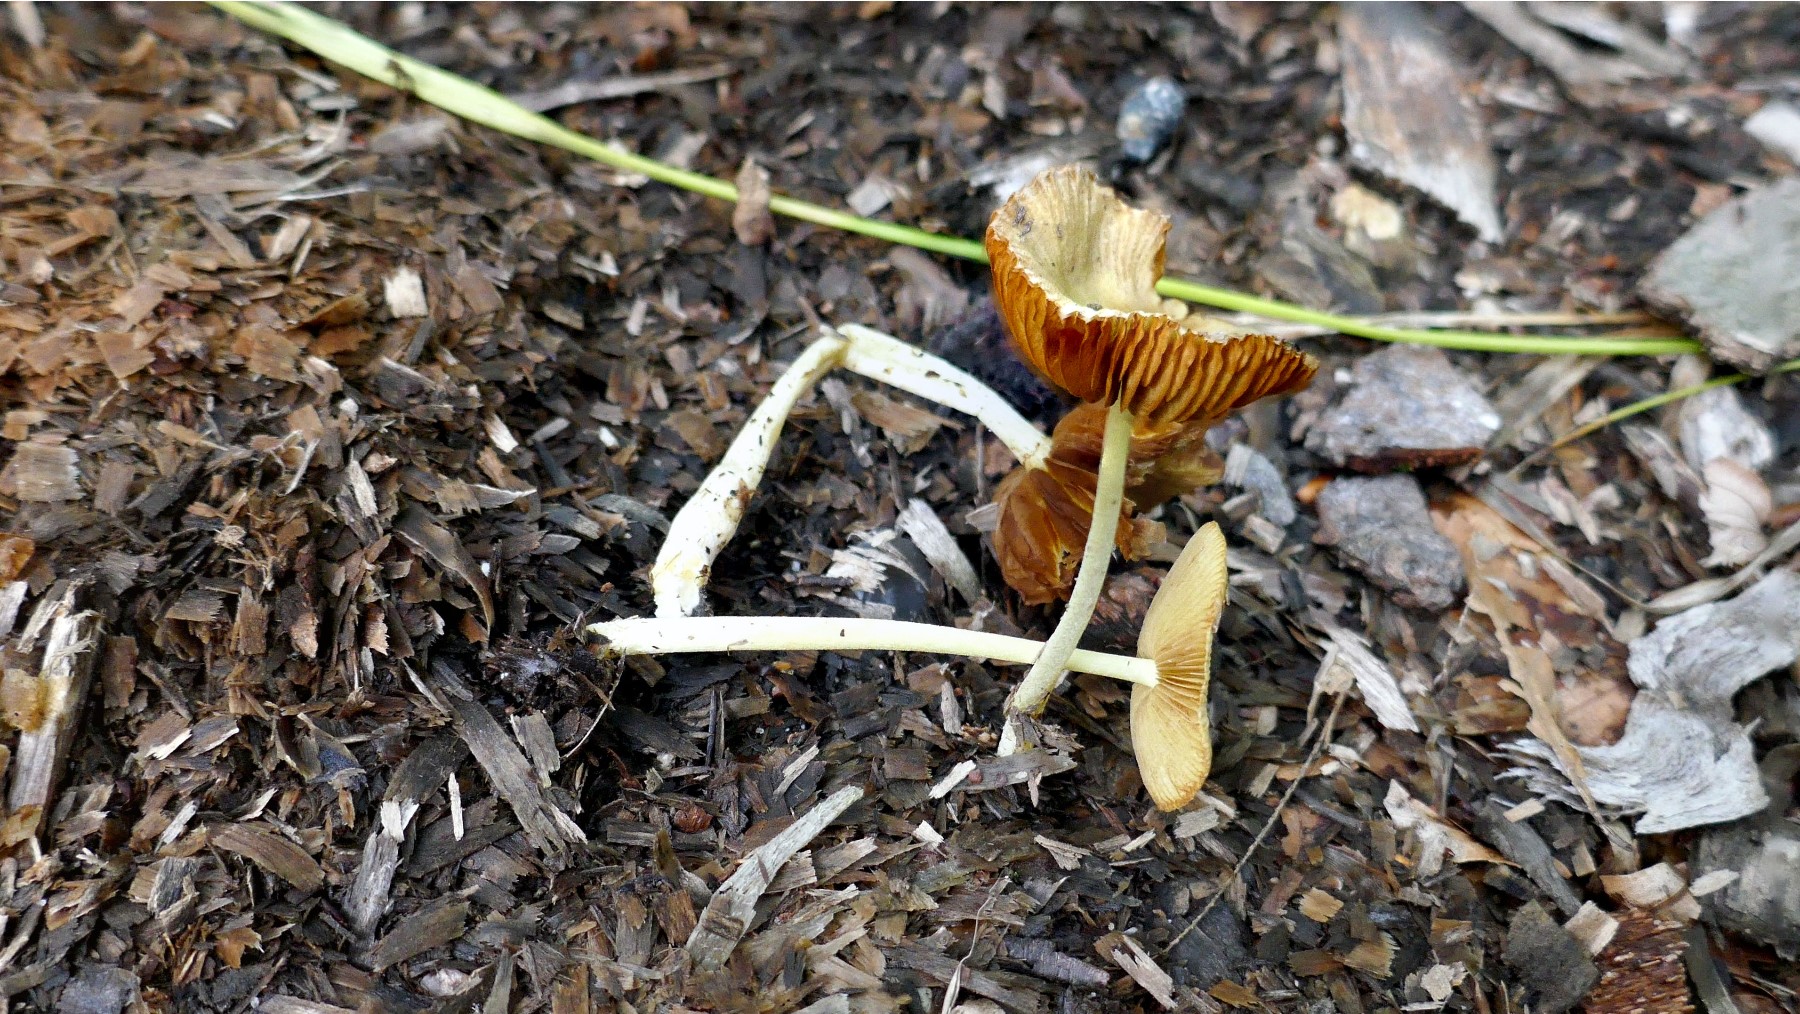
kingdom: Fungi
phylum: Basidiomycota
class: Agaricomycetes
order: Agaricales
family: Bolbitiaceae
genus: Bolbitius
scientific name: Bolbitius titubans
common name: almindelig gulhat
